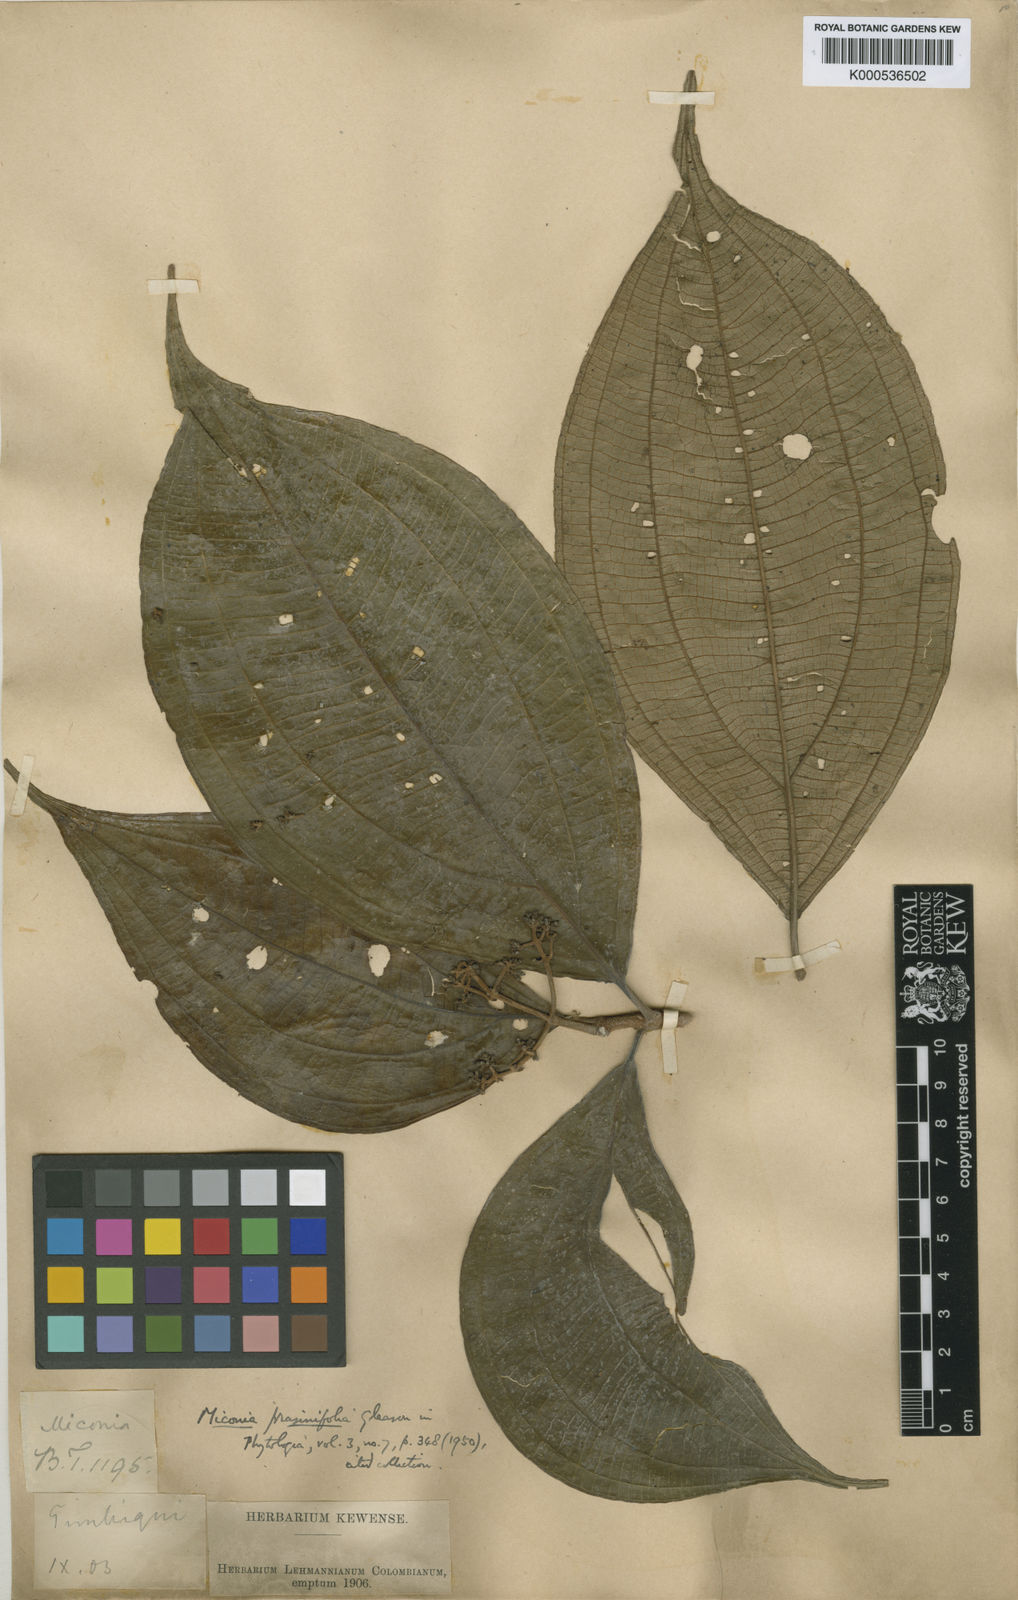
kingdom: Plantae
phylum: Tracheophyta
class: Magnoliopsida
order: Myrtales
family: Melastomataceae
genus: Miconia
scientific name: Miconia prasinifolia
